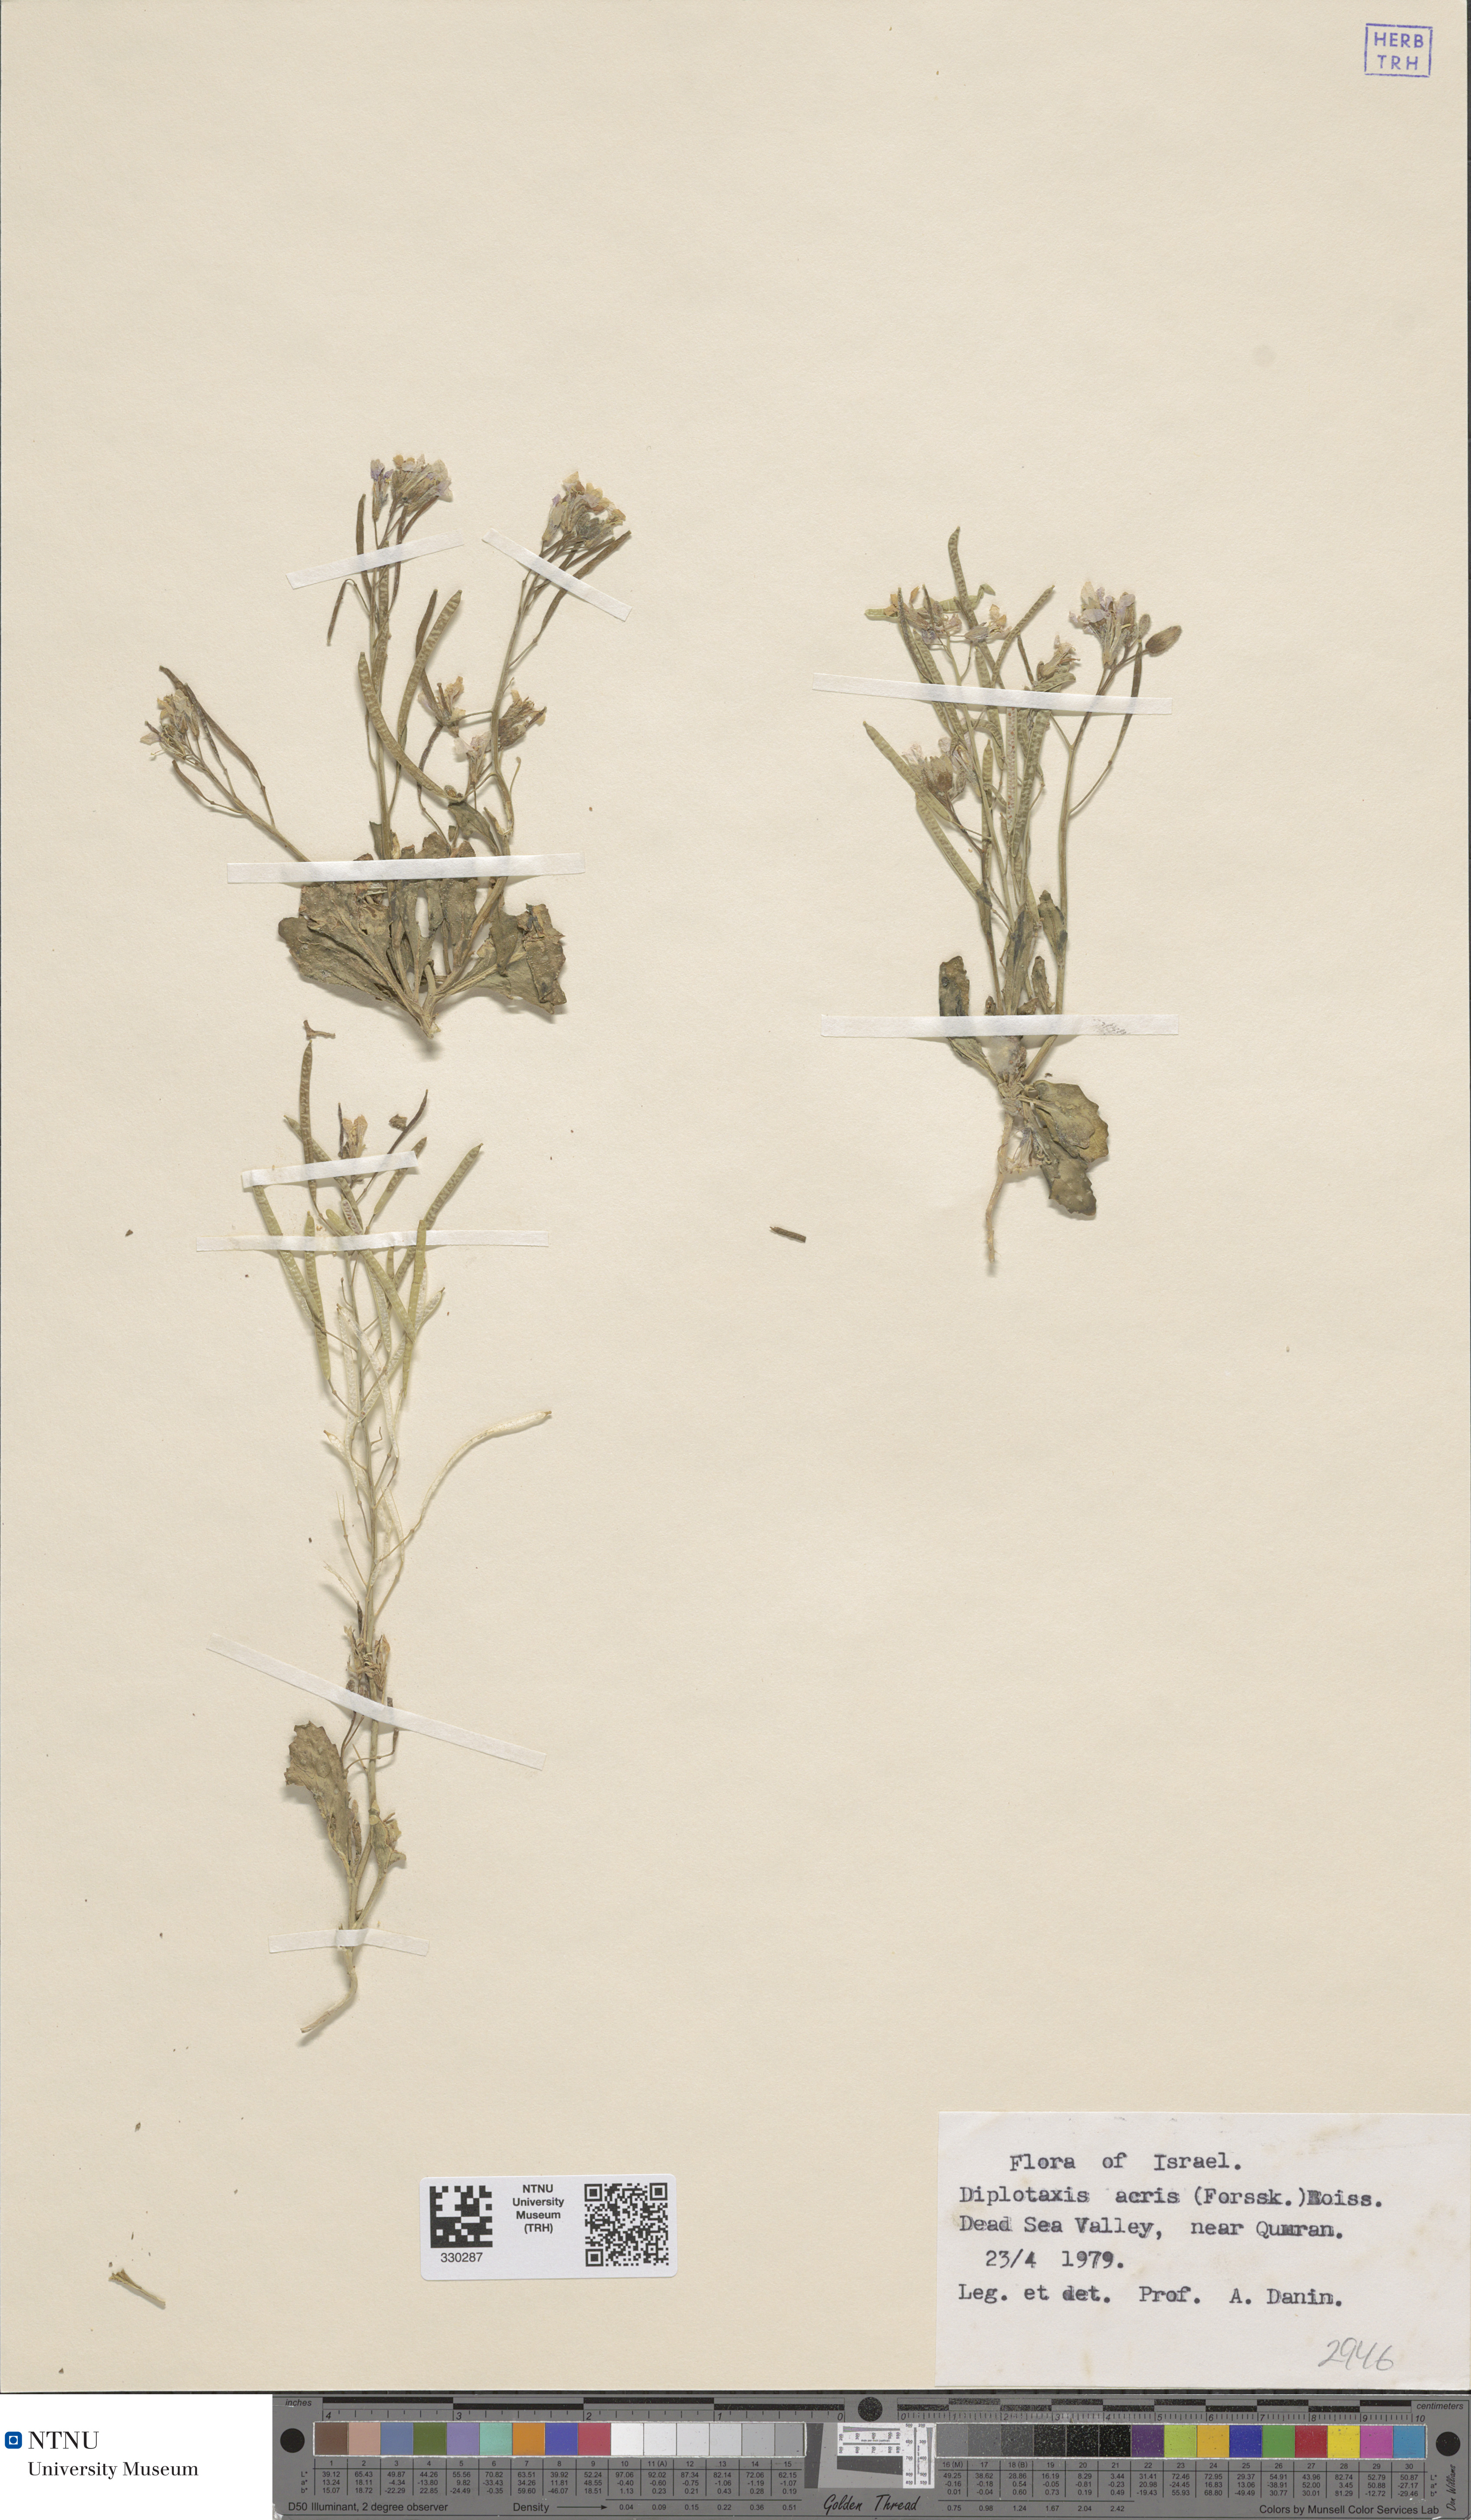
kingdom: Plantae
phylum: Tracheophyta
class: Magnoliopsida
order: Brassicales
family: Brassicaceae
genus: Diplotaxis
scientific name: Diplotaxis acris
